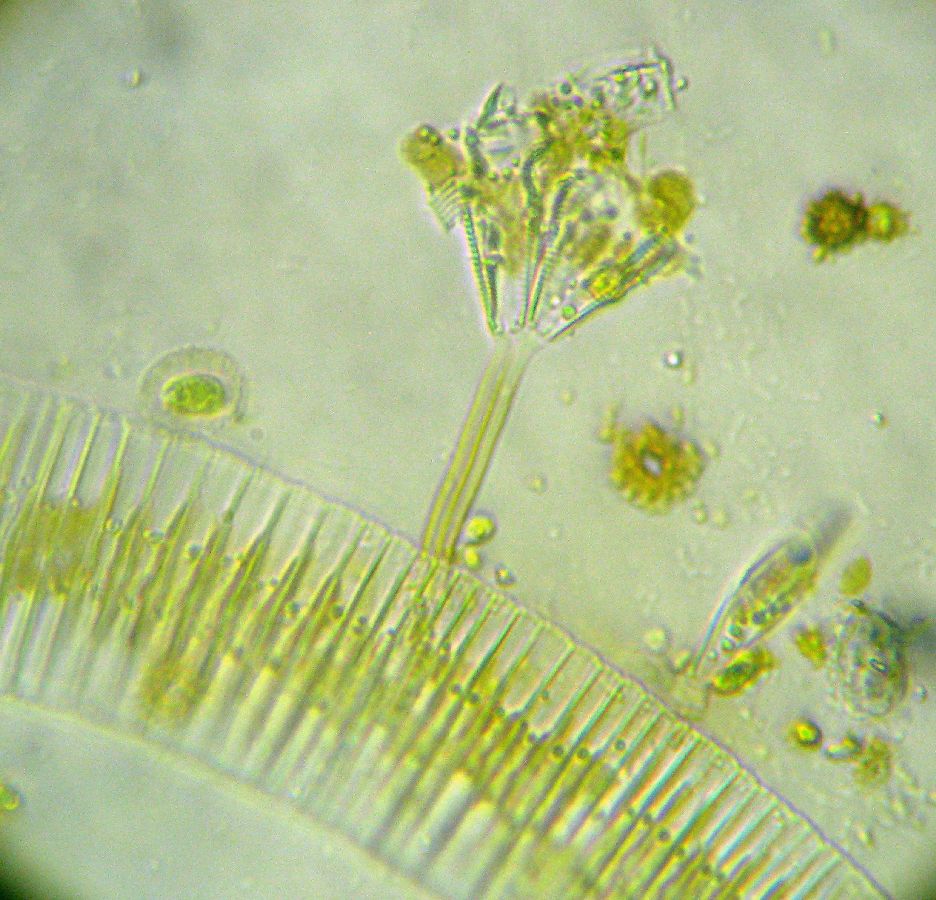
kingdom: Chromista
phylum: Ochrophyta
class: Bacillariophyceae
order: Naviculales
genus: Gomphonema
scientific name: Gomphonema
